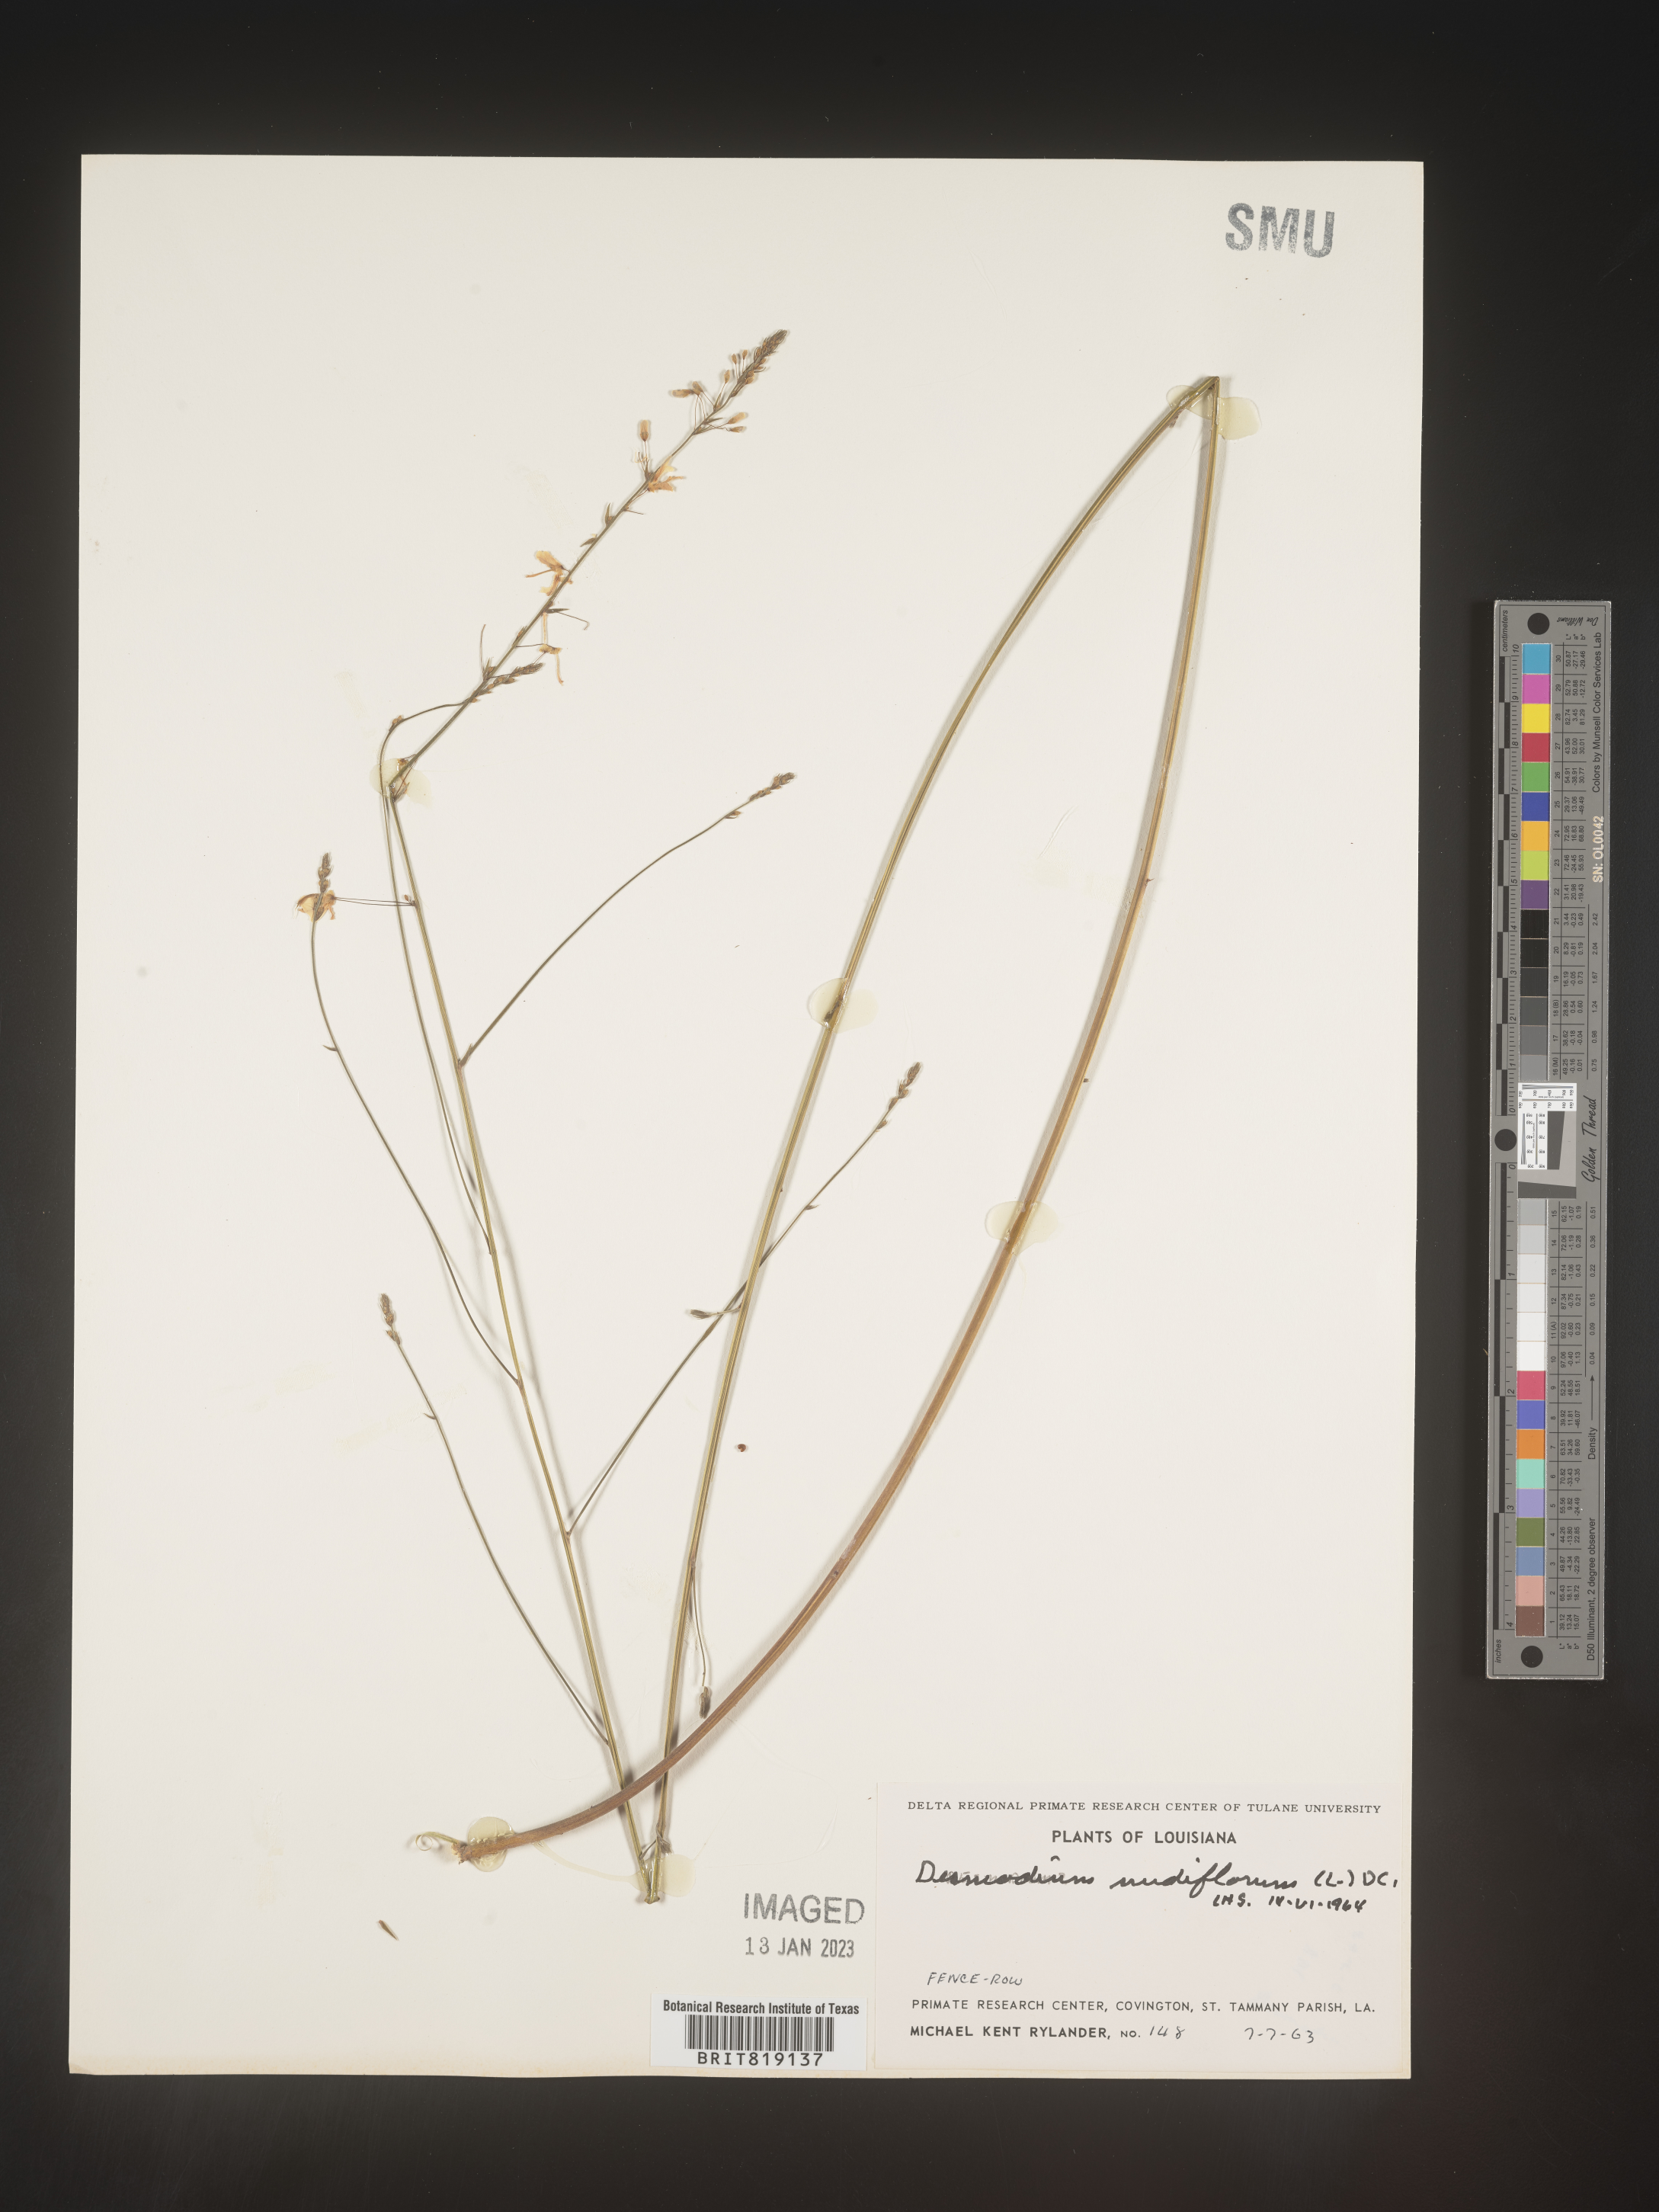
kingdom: Plantae
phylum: Tracheophyta
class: Magnoliopsida
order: Fabales
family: Fabaceae
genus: Hylodesmum
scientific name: Hylodesmum nudiflorum
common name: Bare-stemmed tick-trefoil
